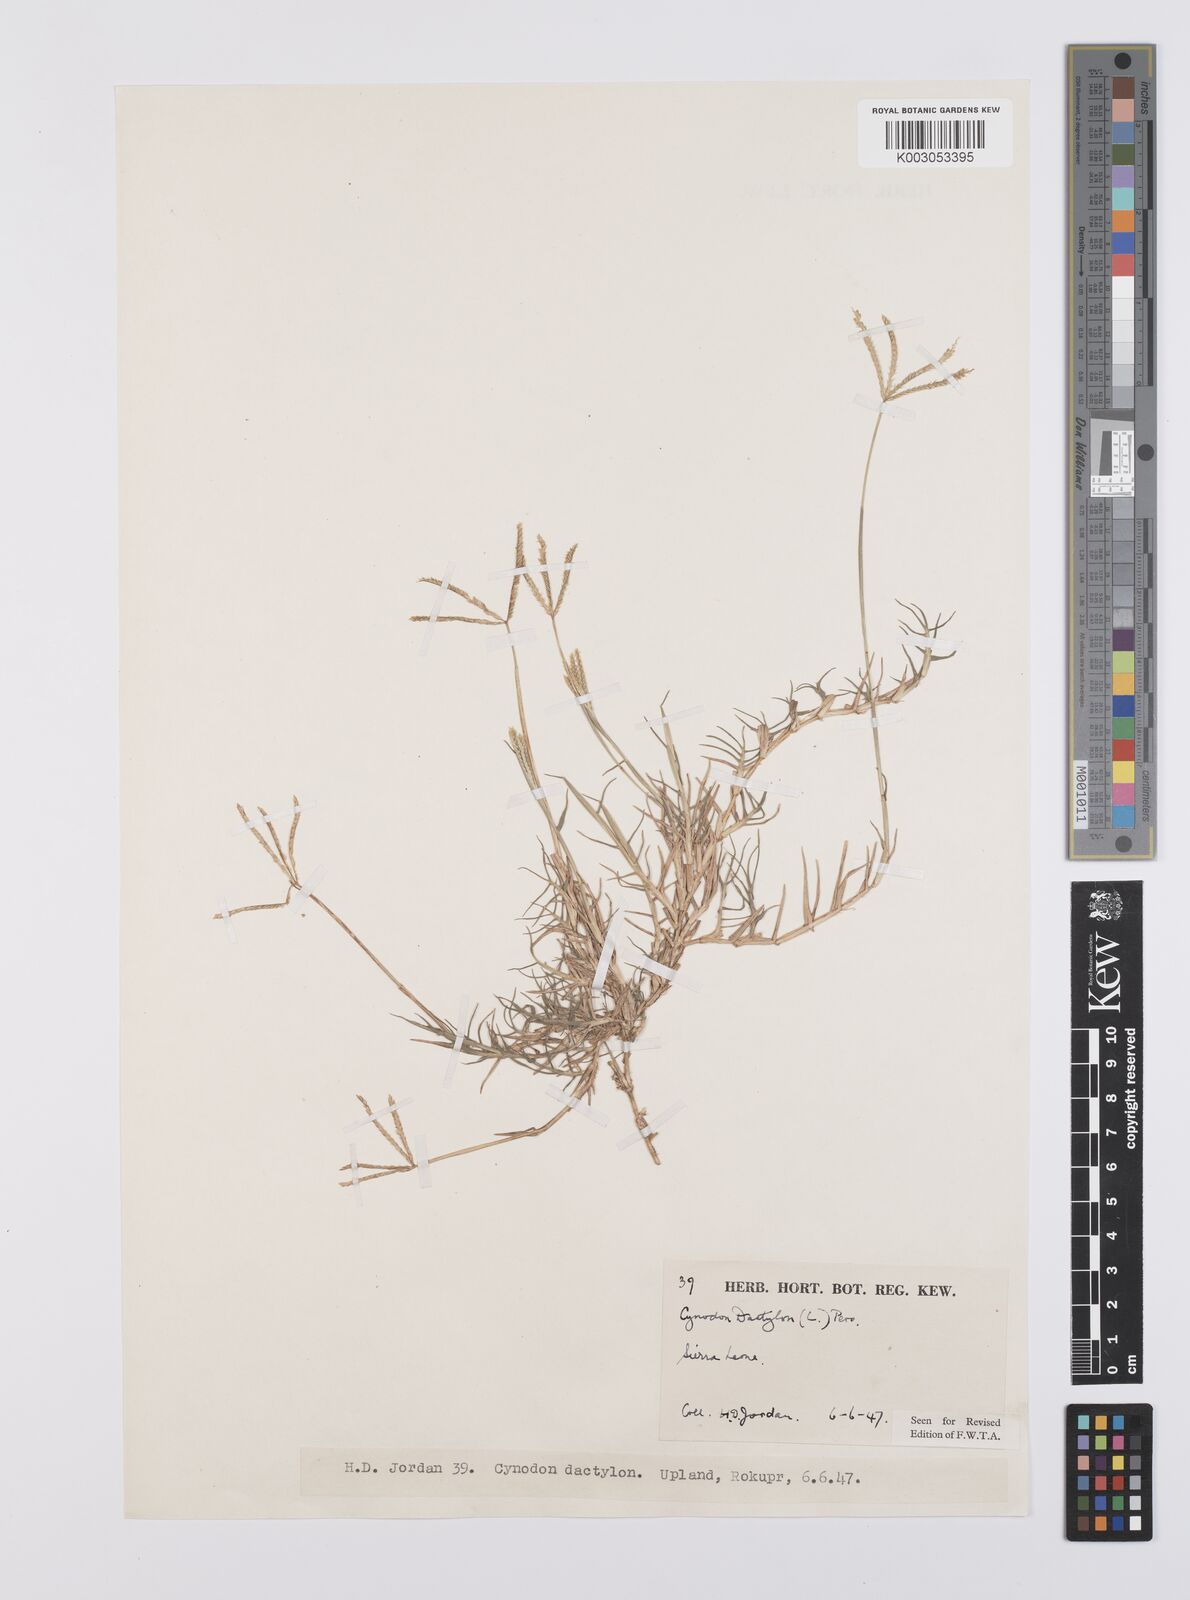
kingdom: Plantae
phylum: Tracheophyta
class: Liliopsida
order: Poales
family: Poaceae
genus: Cynodon
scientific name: Cynodon dactylon
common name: Bermuda grass
